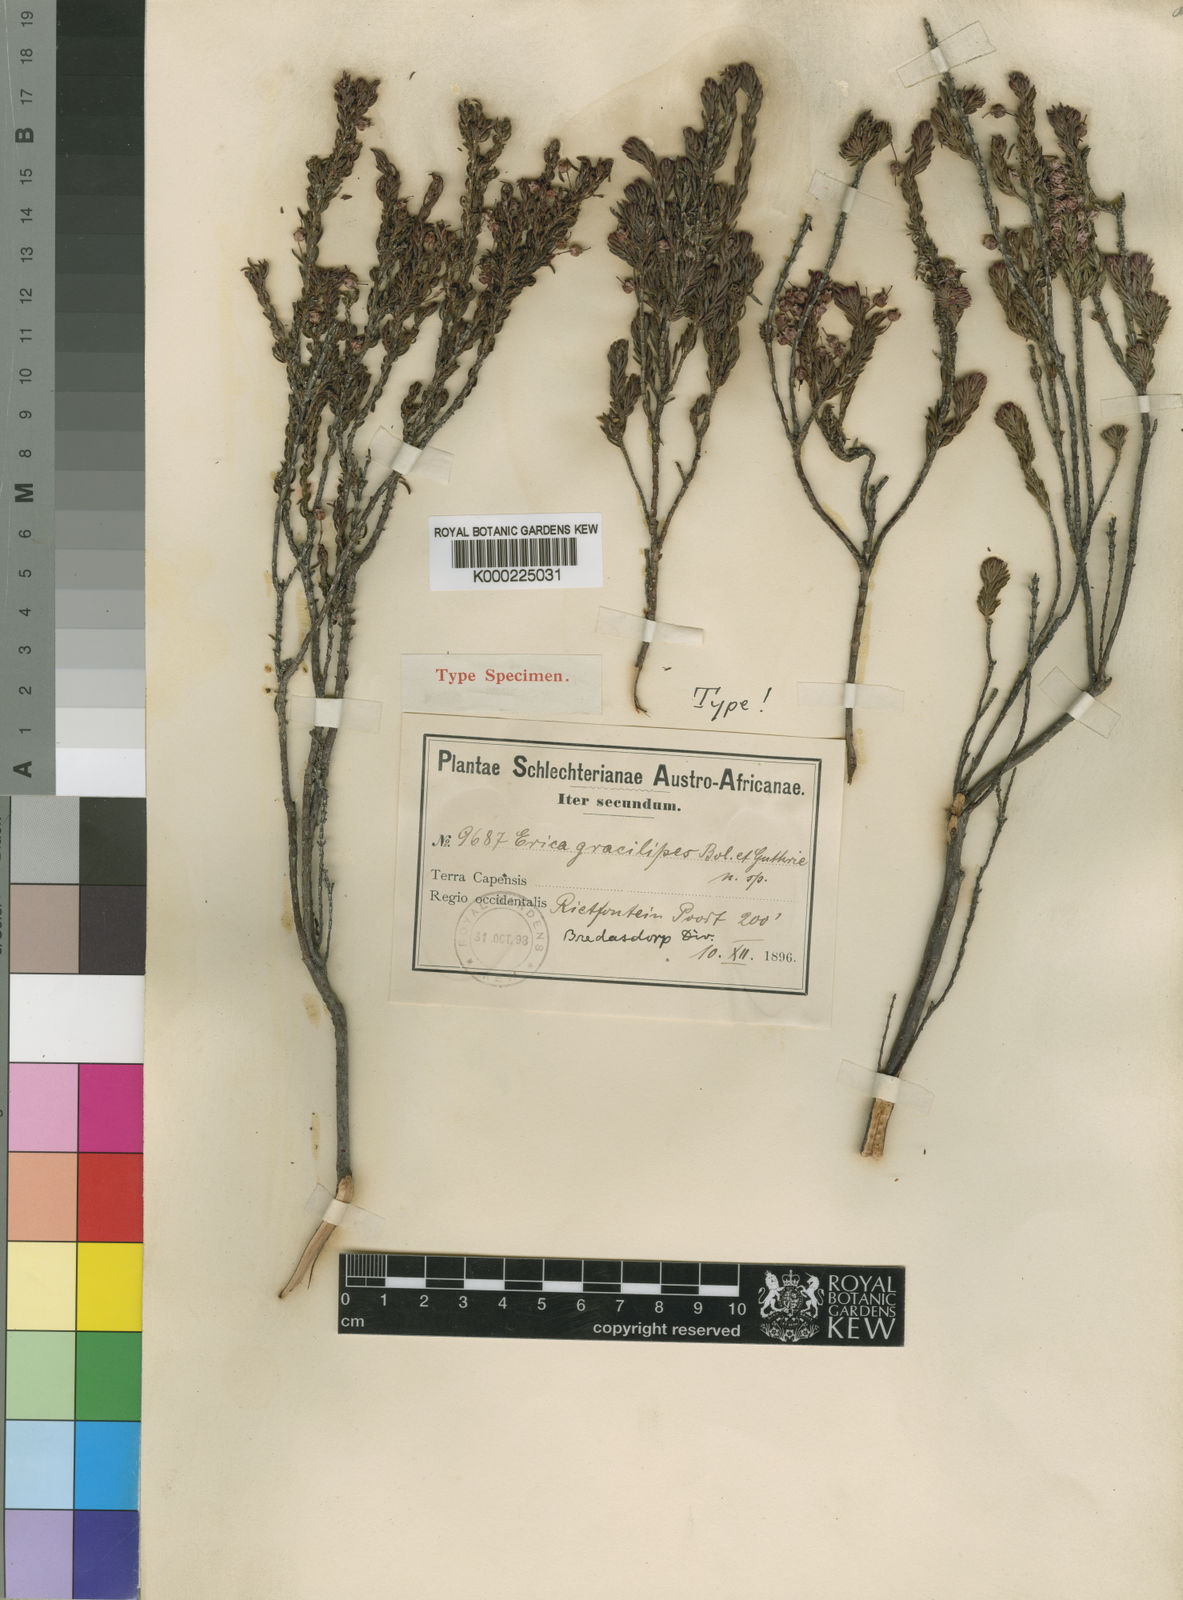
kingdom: Plantae
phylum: Tracheophyta
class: Magnoliopsida
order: Ericales
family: Ericaceae
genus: Erica
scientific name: Erica gracilipes
